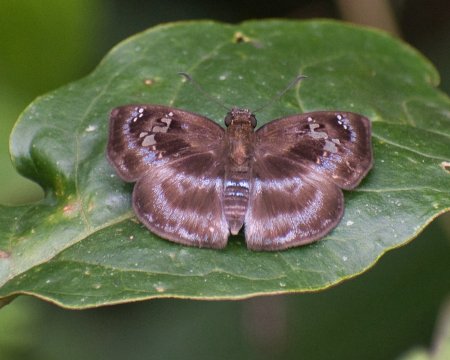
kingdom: Animalia
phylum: Arthropoda
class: Insecta
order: Lepidoptera
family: Hesperiidae
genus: Quadrus
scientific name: Quadrus cerialis
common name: Common Blue-Skipper
